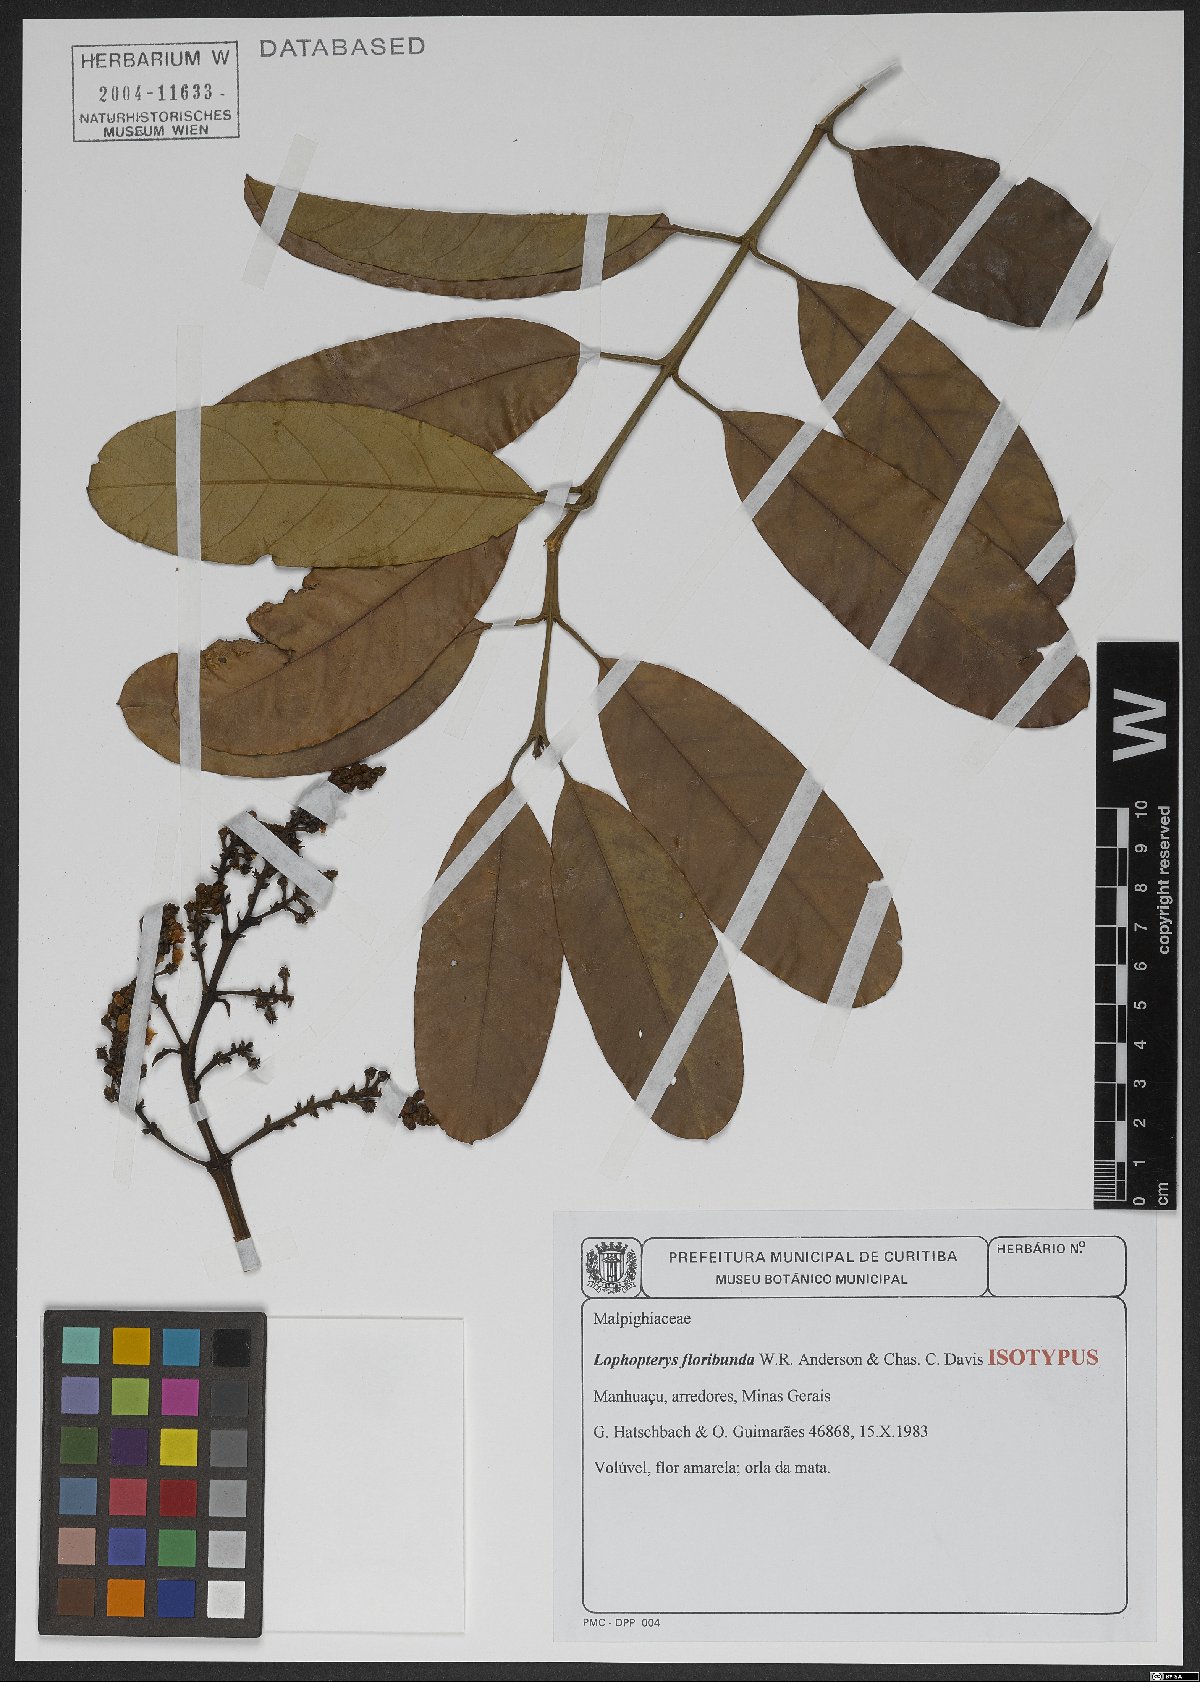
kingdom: Plantae
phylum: Tracheophyta
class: Magnoliopsida
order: Malpighiales
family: Malpighiaceae
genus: Lophopterys
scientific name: Lophopterys floribunda
